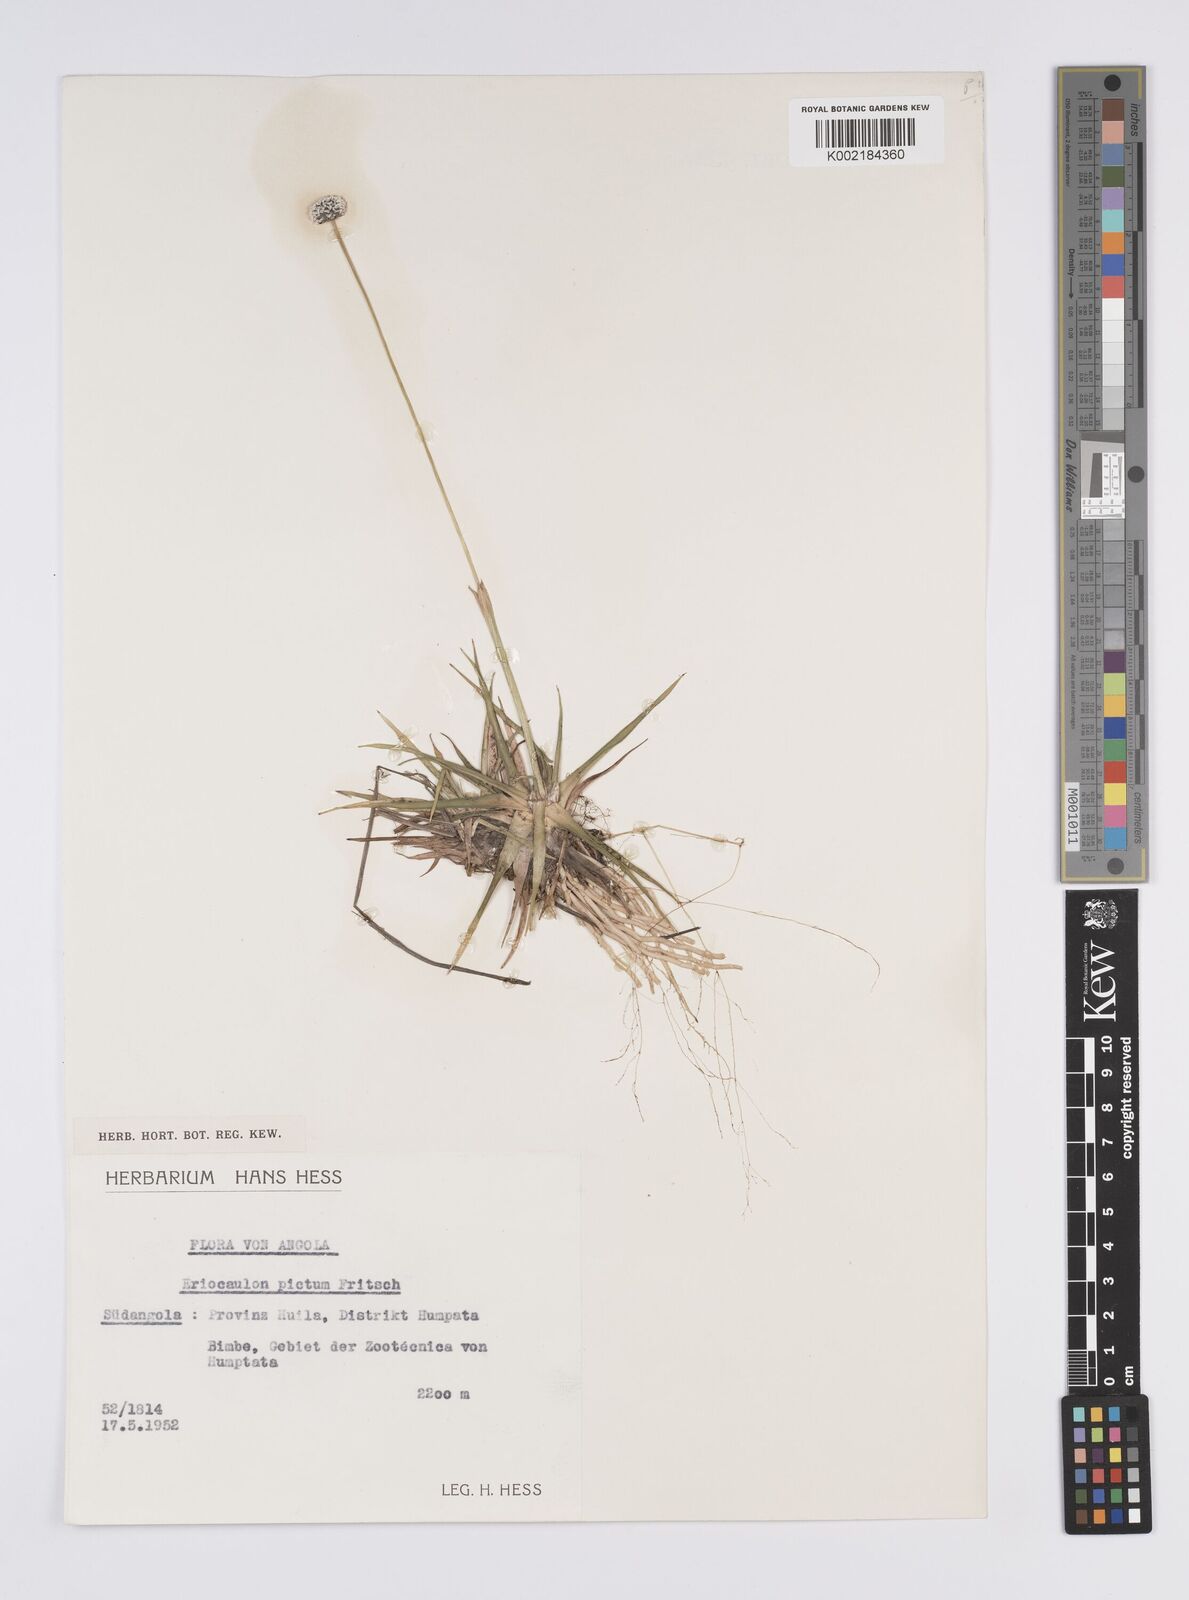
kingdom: Plantae
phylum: Tracheophyta
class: Liliopsida
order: Poales
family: Eriocaulaceae
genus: Eriocaulon
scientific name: Eriocaulon pictum
